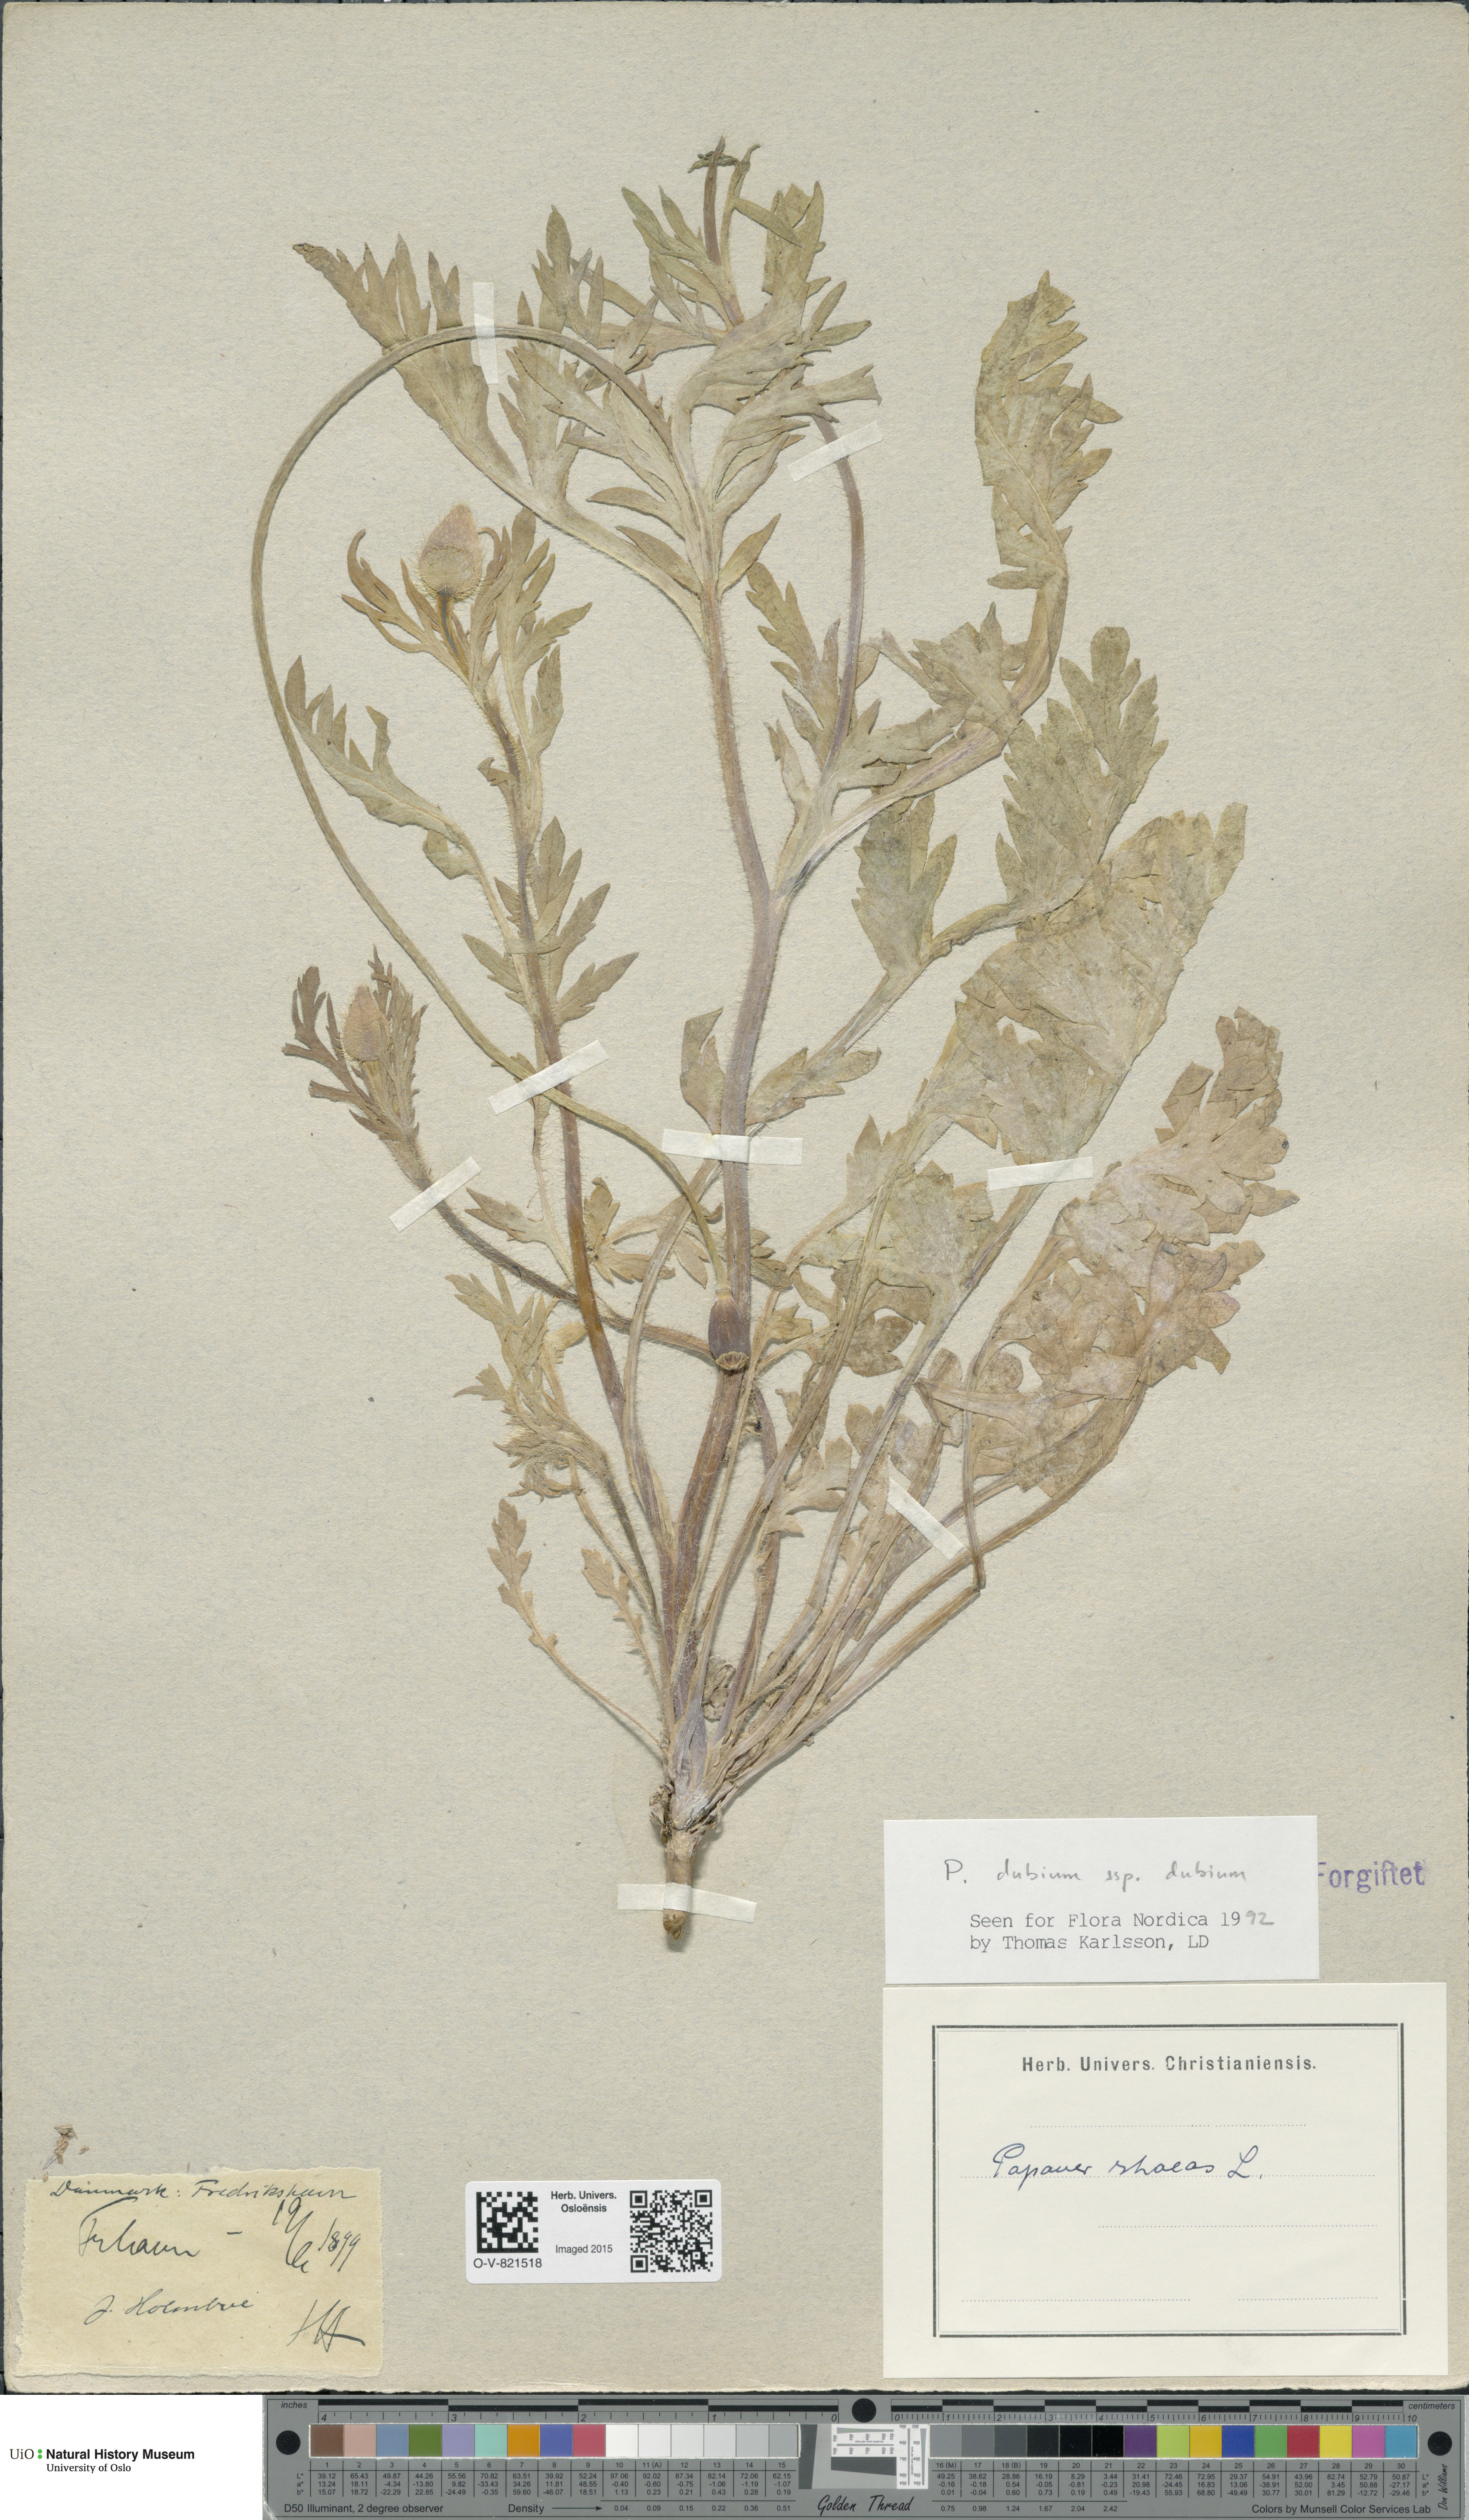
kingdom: Plantae
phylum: Tracheophyta
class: Magnoliopsida
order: Ranunculales
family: Papaveraceae
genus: Papaver
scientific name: Papaver dubium
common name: Long-headed poppy
